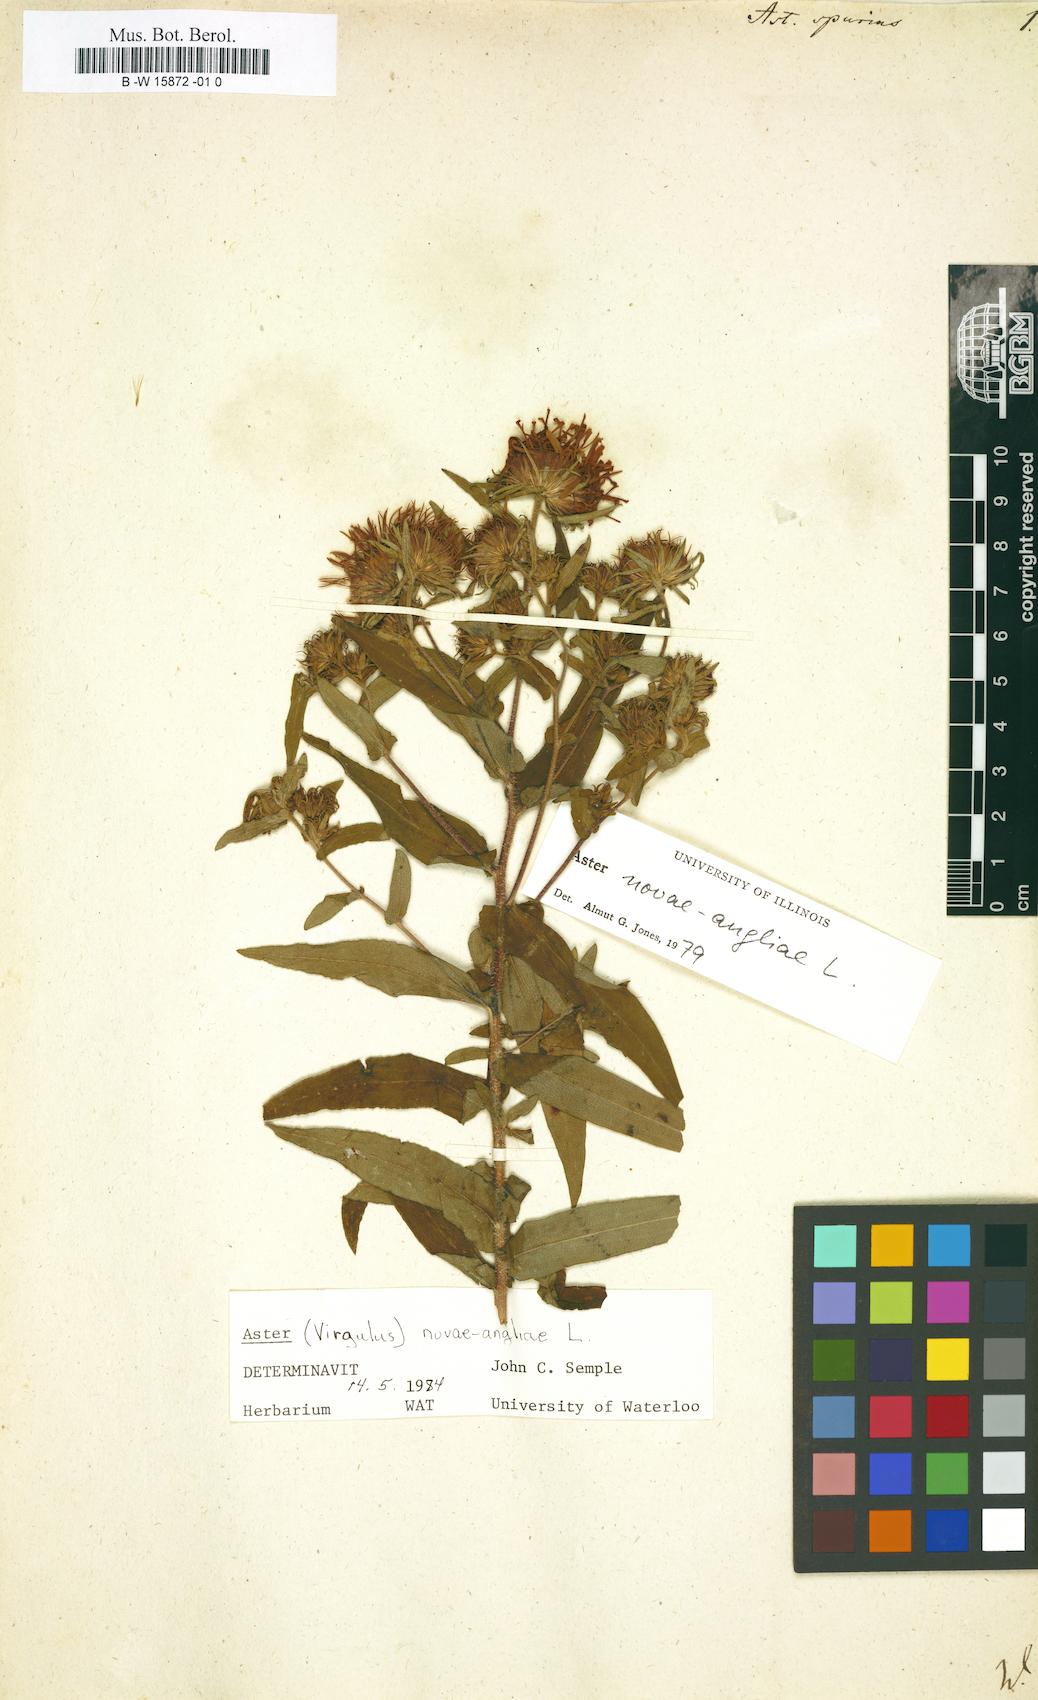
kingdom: Plantae
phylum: Tracheophyta
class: Magnoliopsida
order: Asterales
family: Asteraceae
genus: Symphyotrichum
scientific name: Symphyotrichum novae-angliae
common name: Michaelmas daisy
